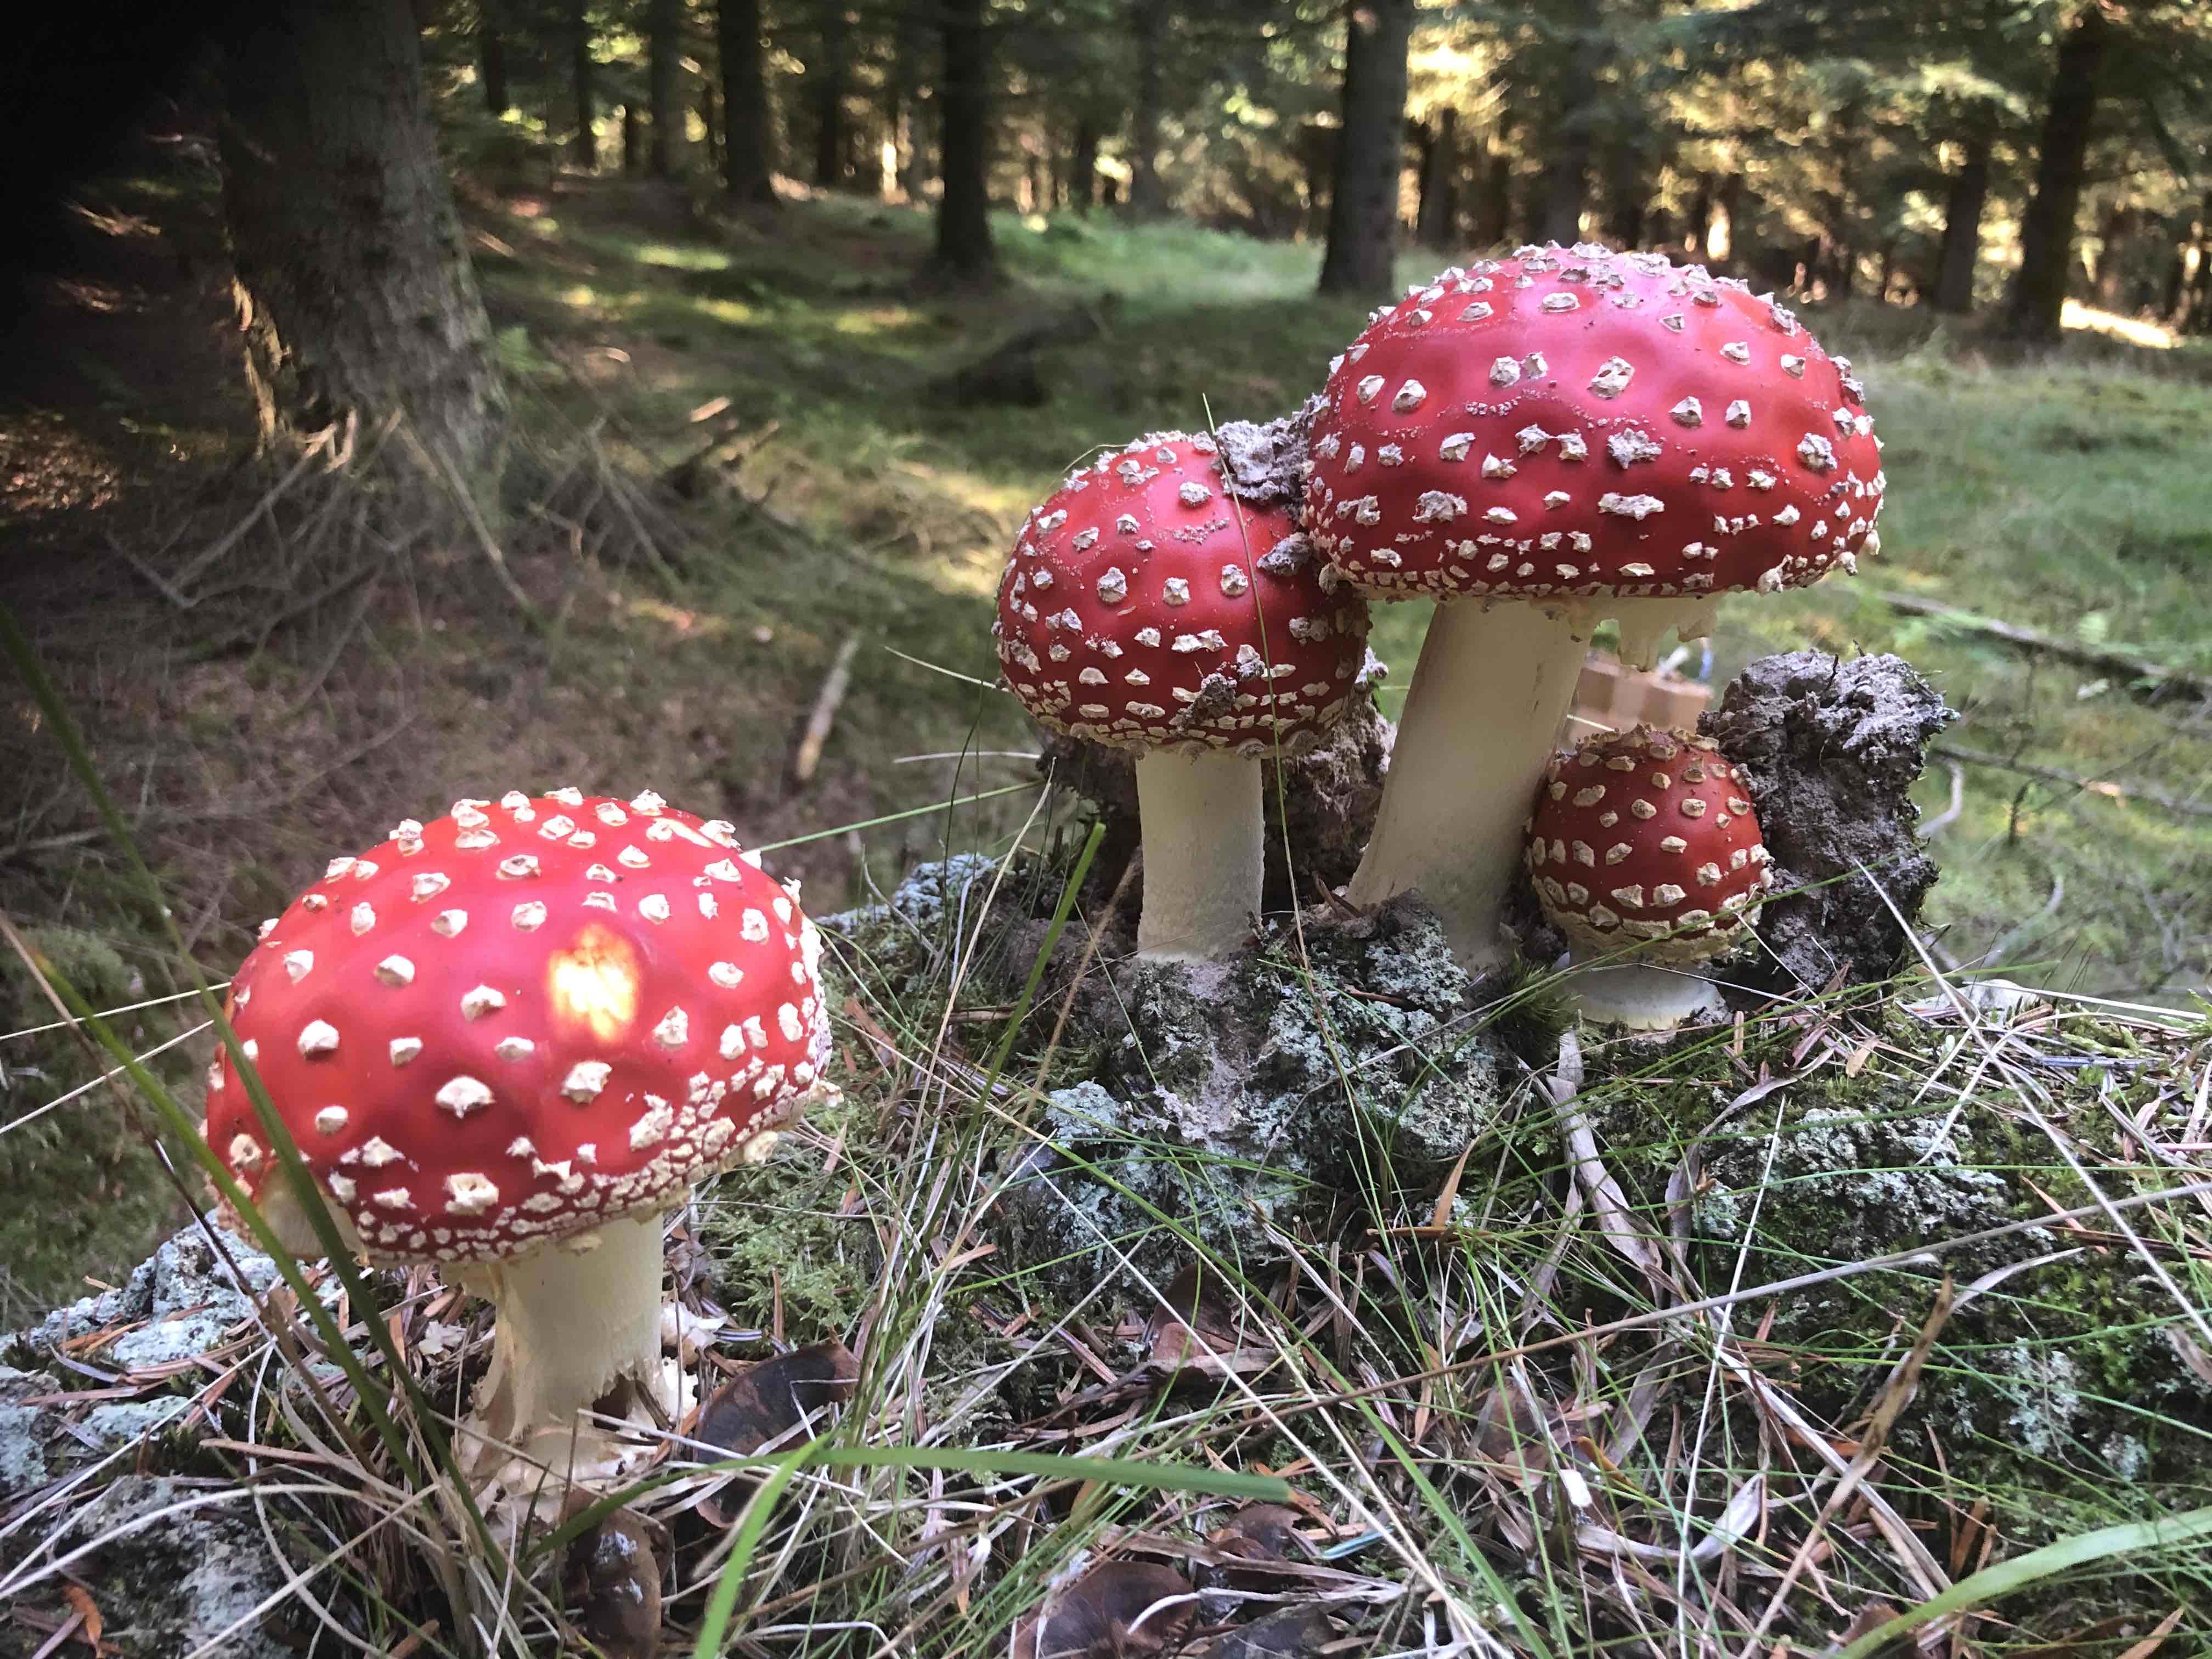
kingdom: Fungi
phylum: Basidiomycota
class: Agaricomycetes
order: Agaricales
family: Amanitaceae
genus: Amanita
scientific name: Amanita muscaria
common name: rød fluesvamp
